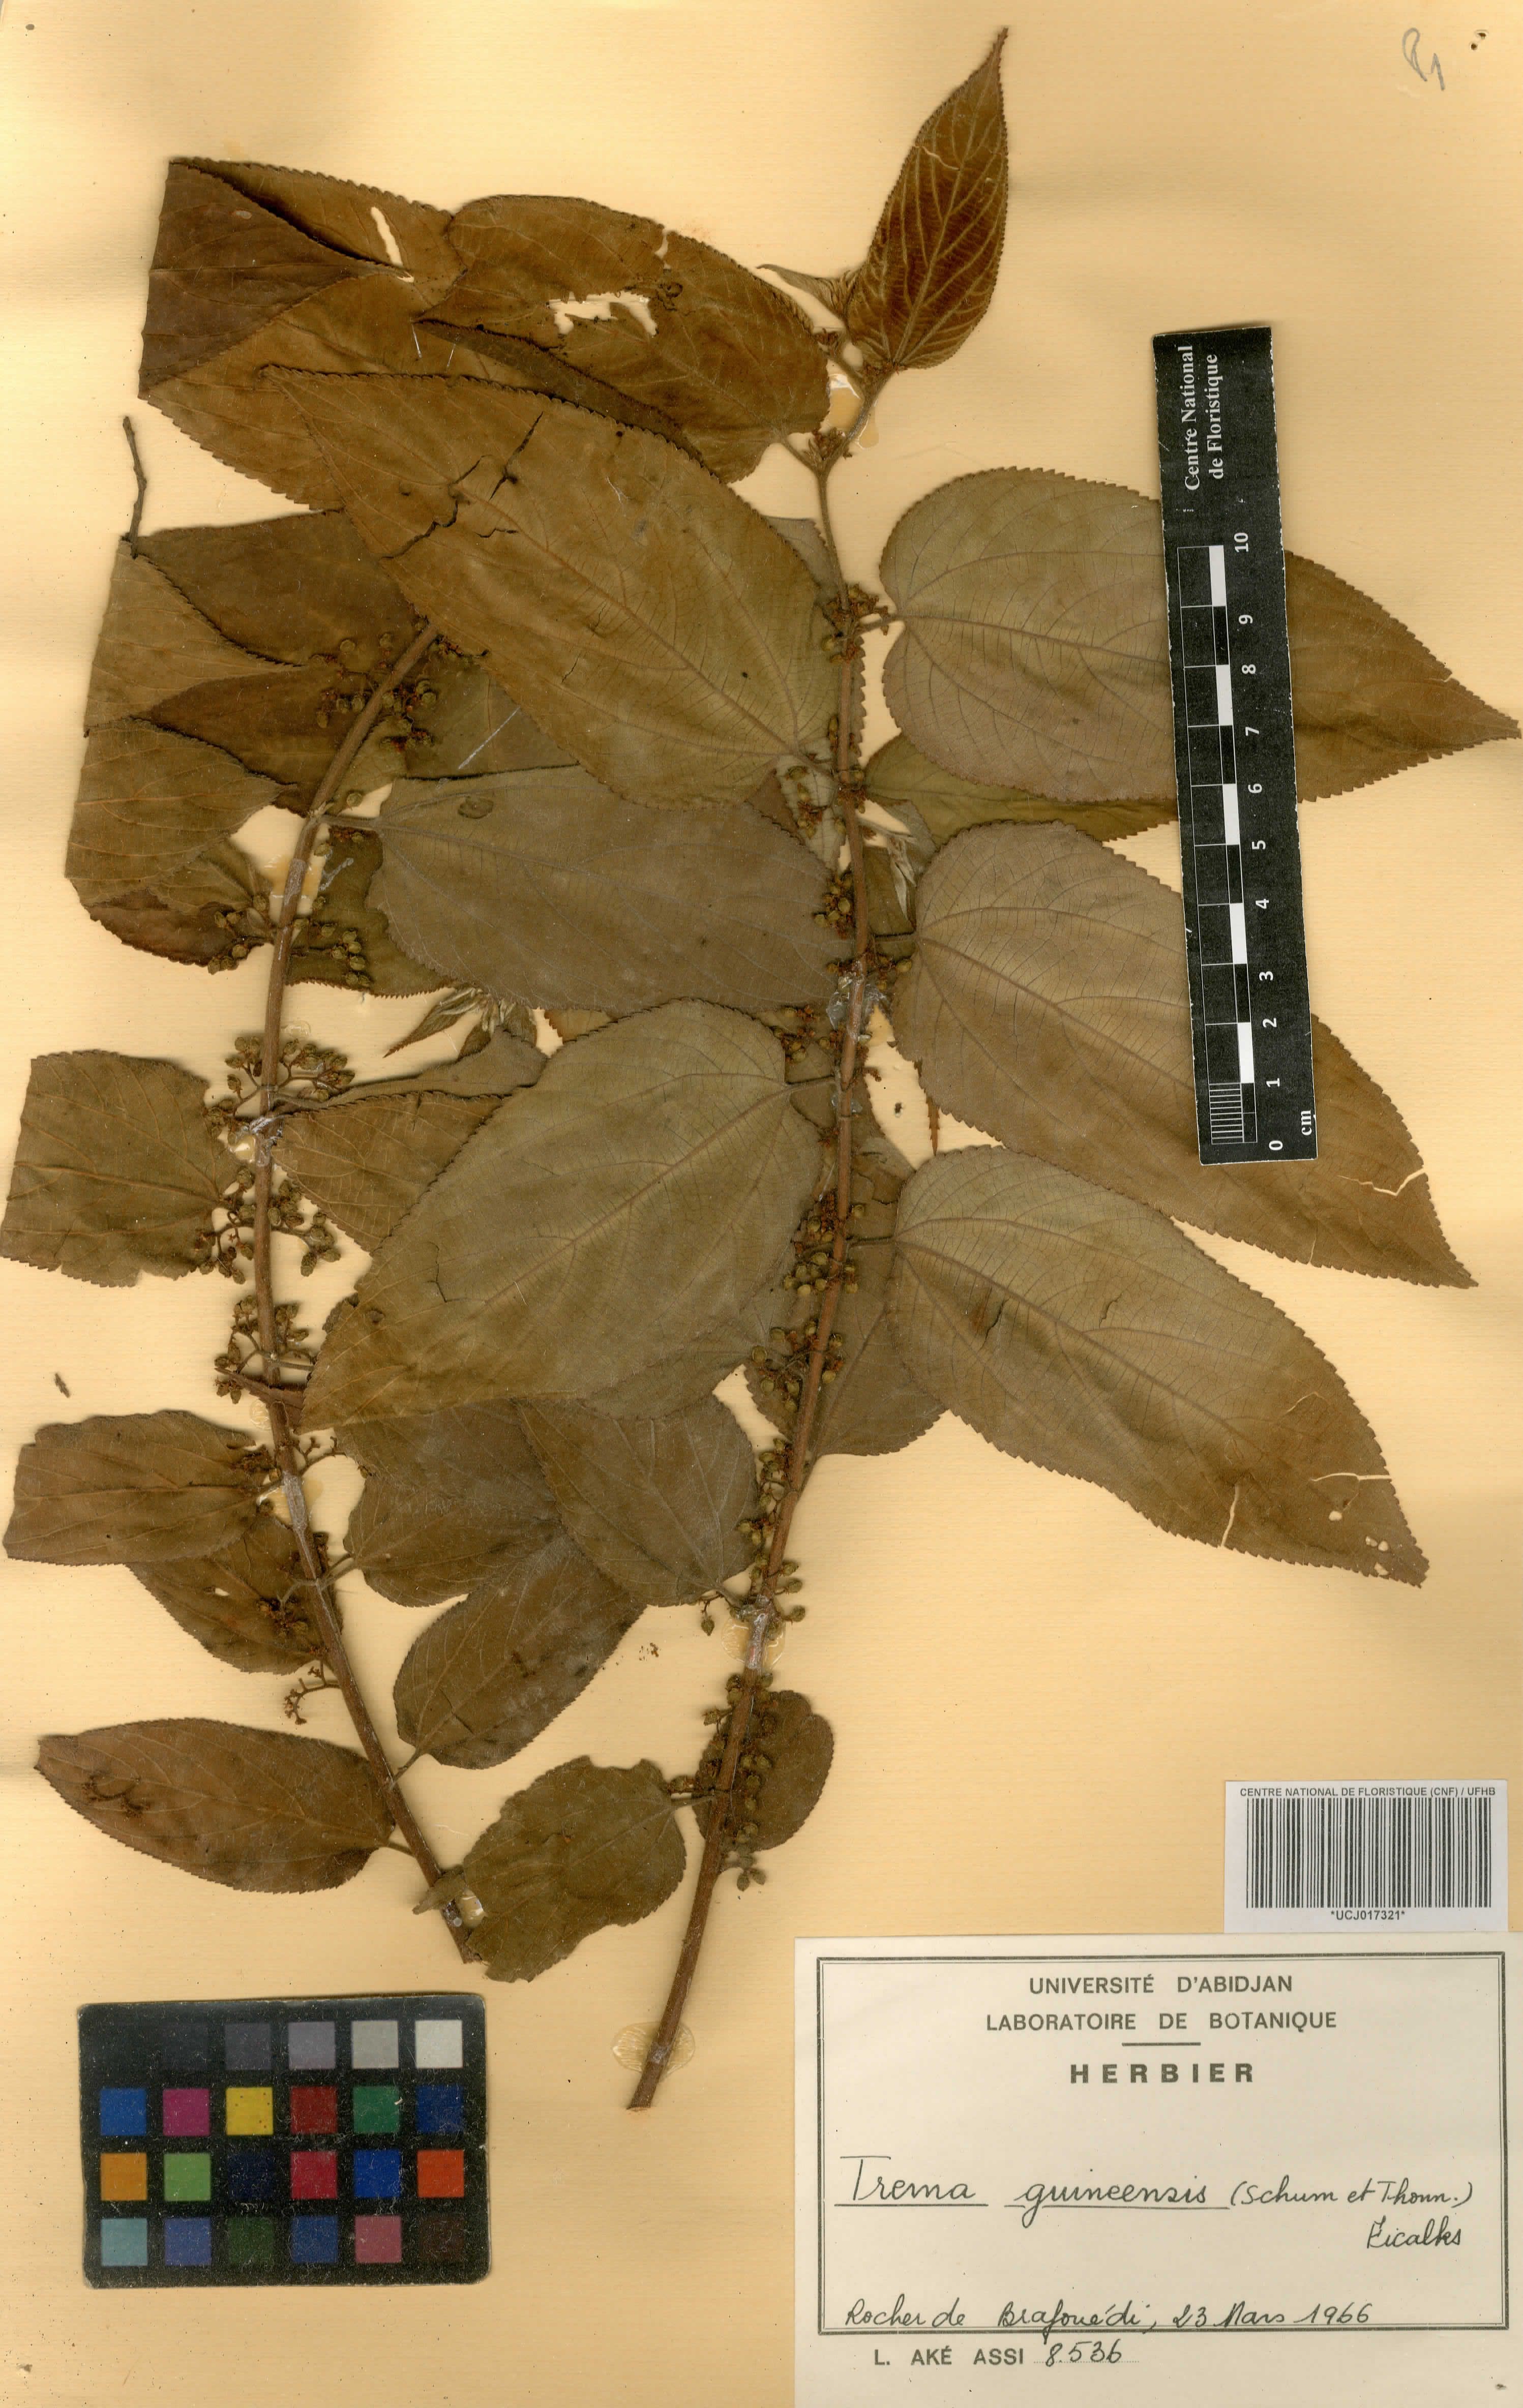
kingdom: Plantae
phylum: Tracheophyta
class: Magnoliopsida
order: Rosales
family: Cannabaceae
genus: Trema
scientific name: Trema orientale
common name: Indian charcoal tree
